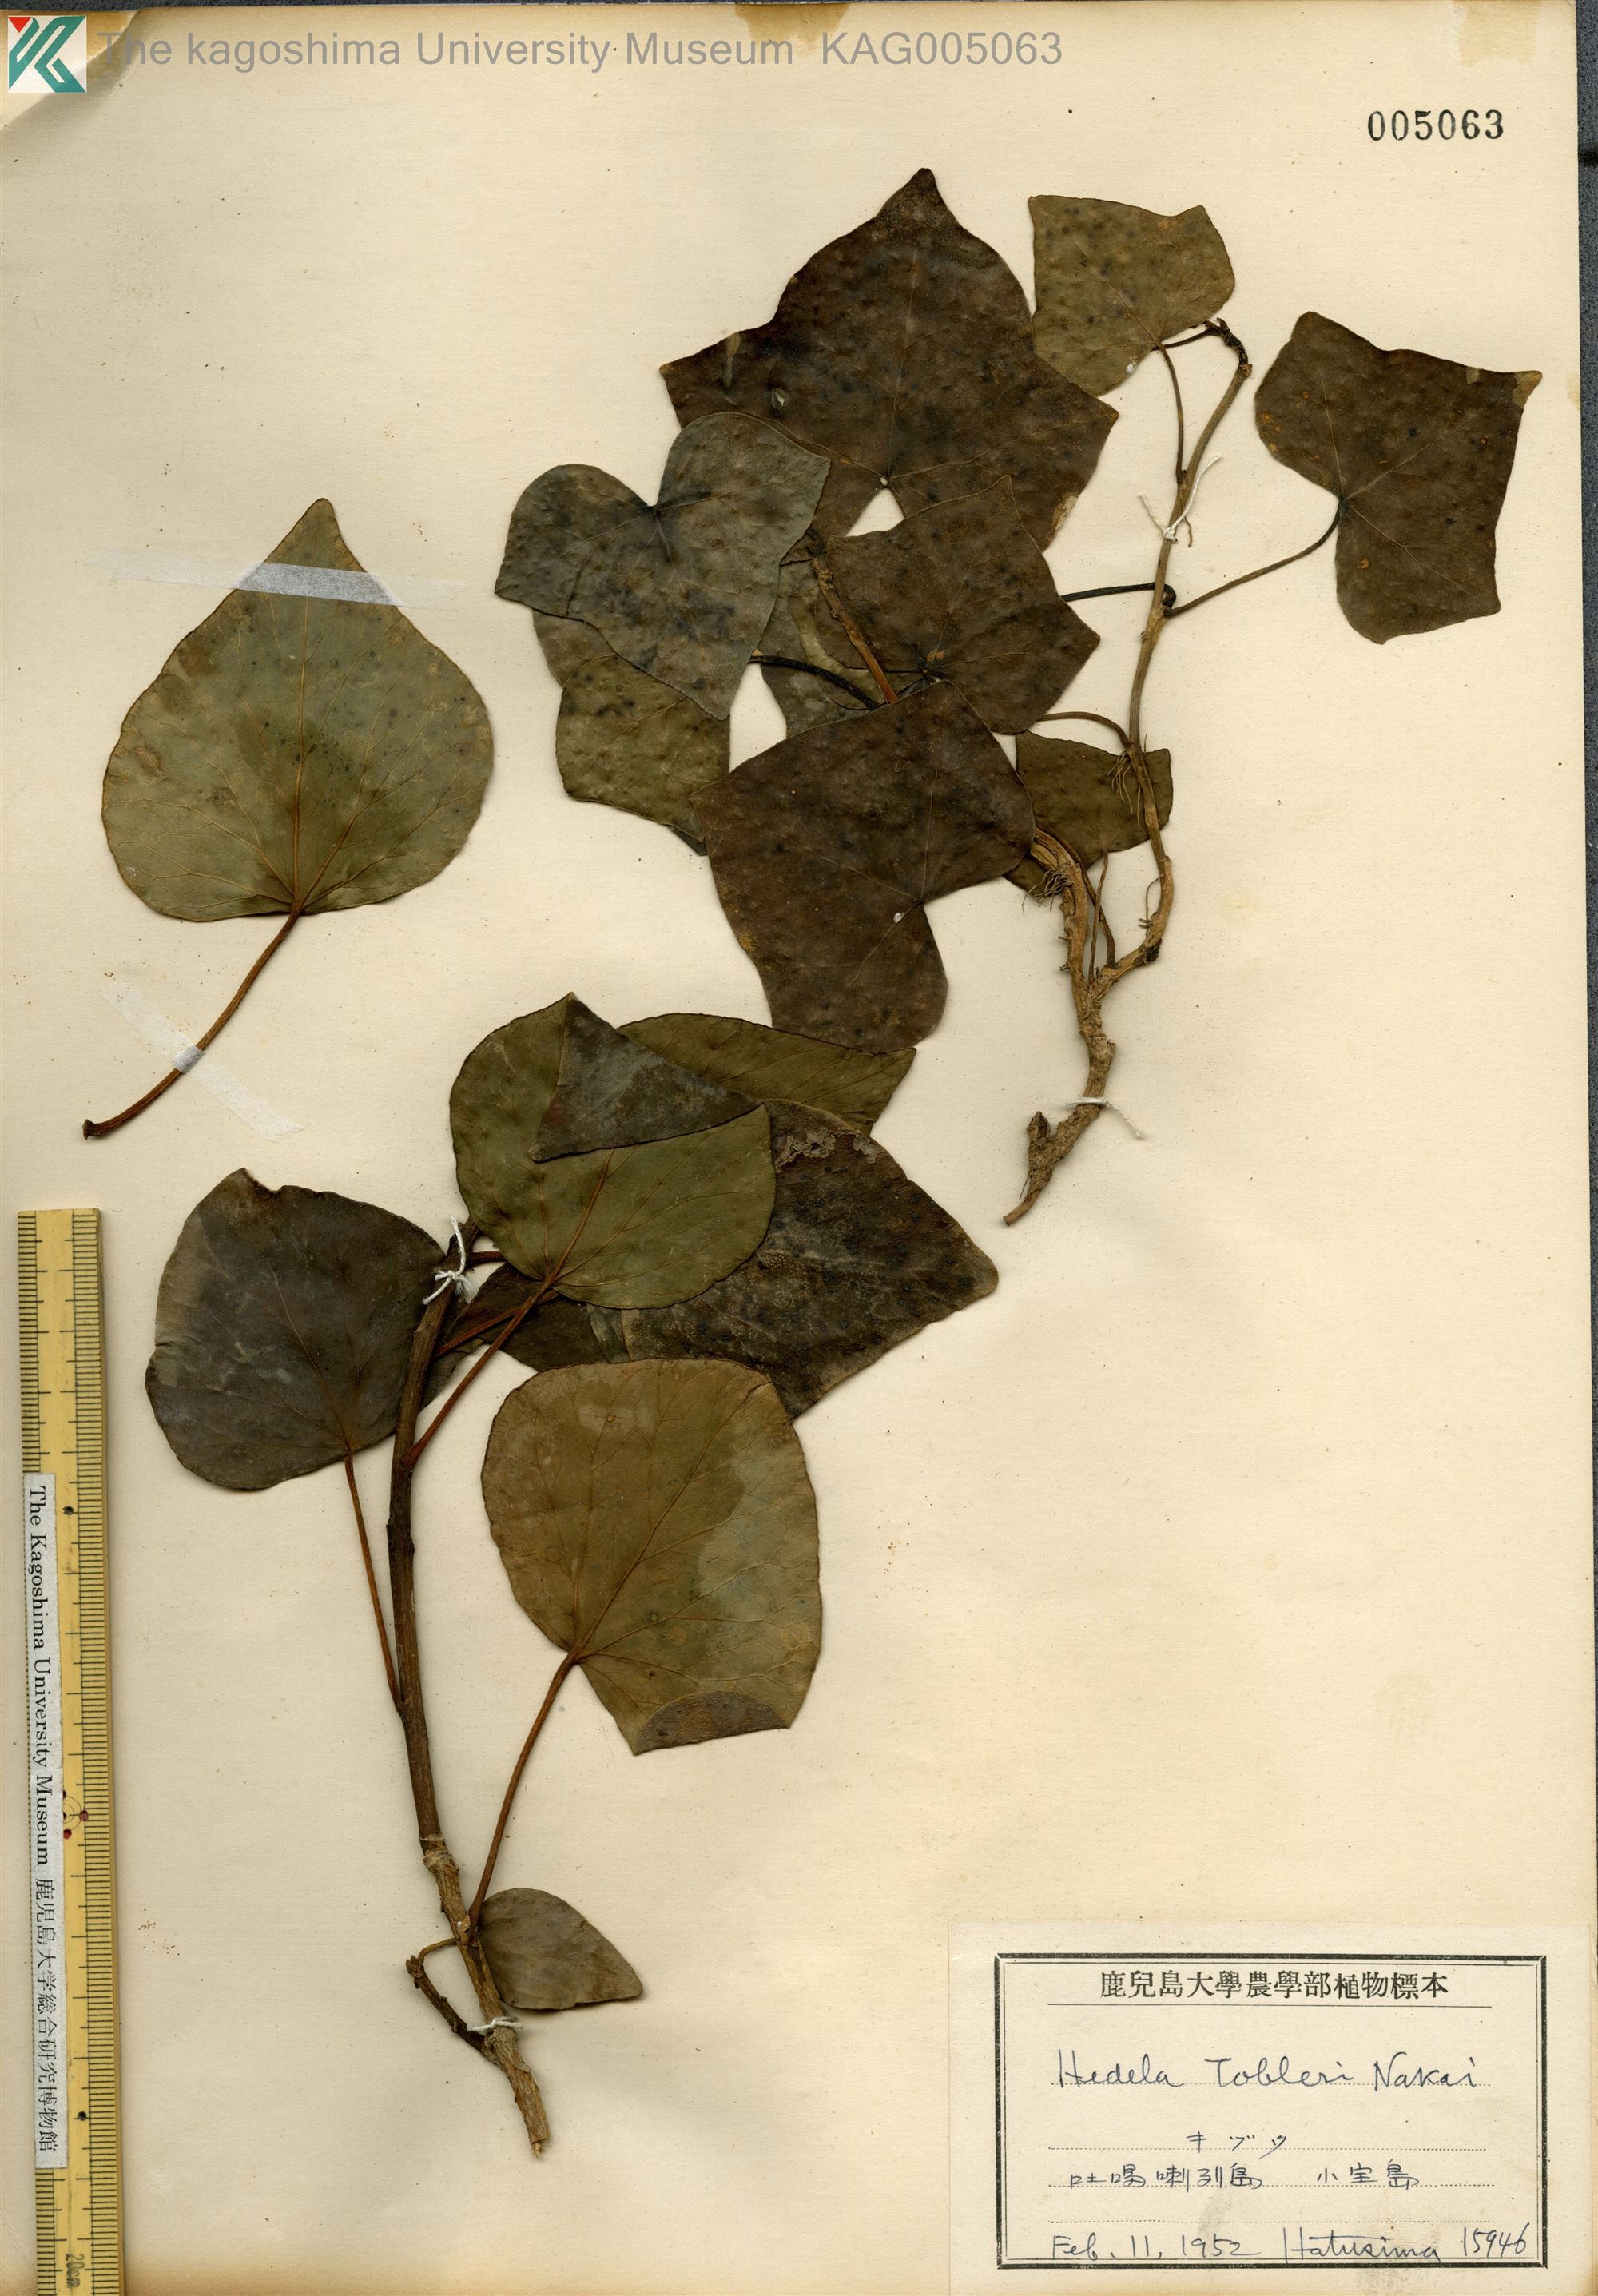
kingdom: Plantae
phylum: Tracheophyta
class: Magnoliopsida
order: Apiales
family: Araliaceae
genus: Hedera
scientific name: Hedera rhombea
